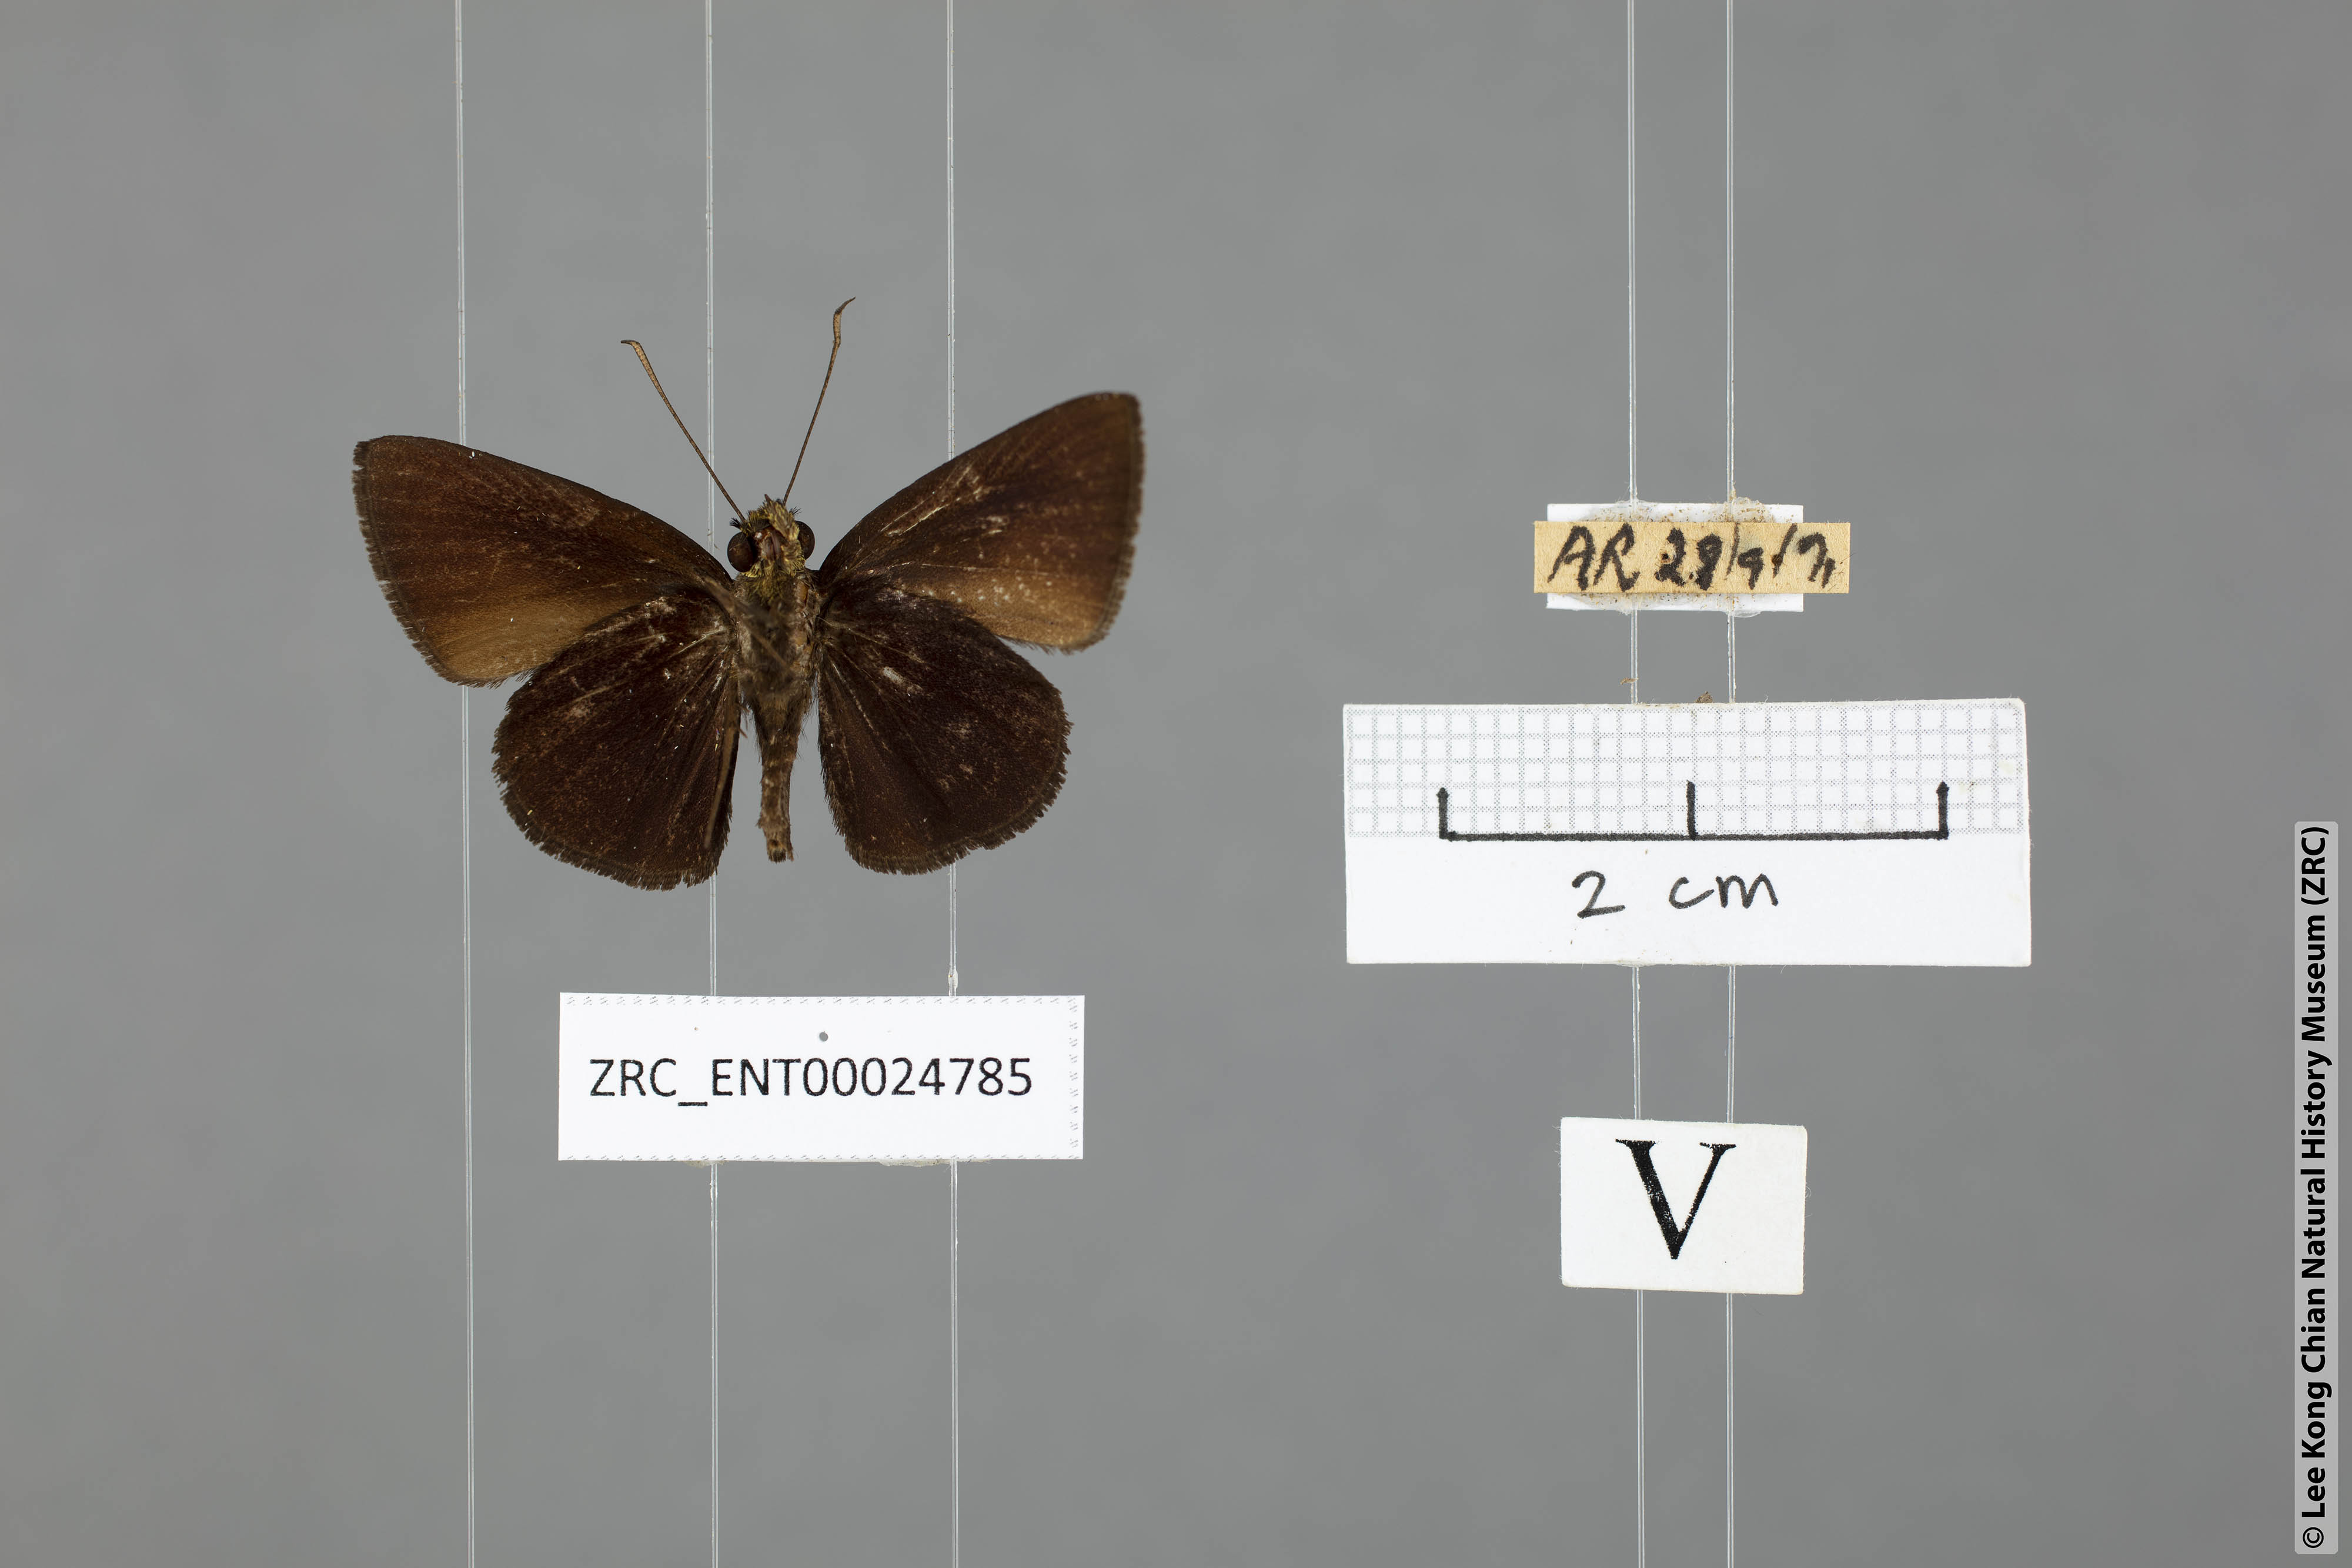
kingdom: Animalia
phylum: Arthropoda
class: Insecta
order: Lepidoptera
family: Hesperiidae
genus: Iambrix
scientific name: Iambrix
